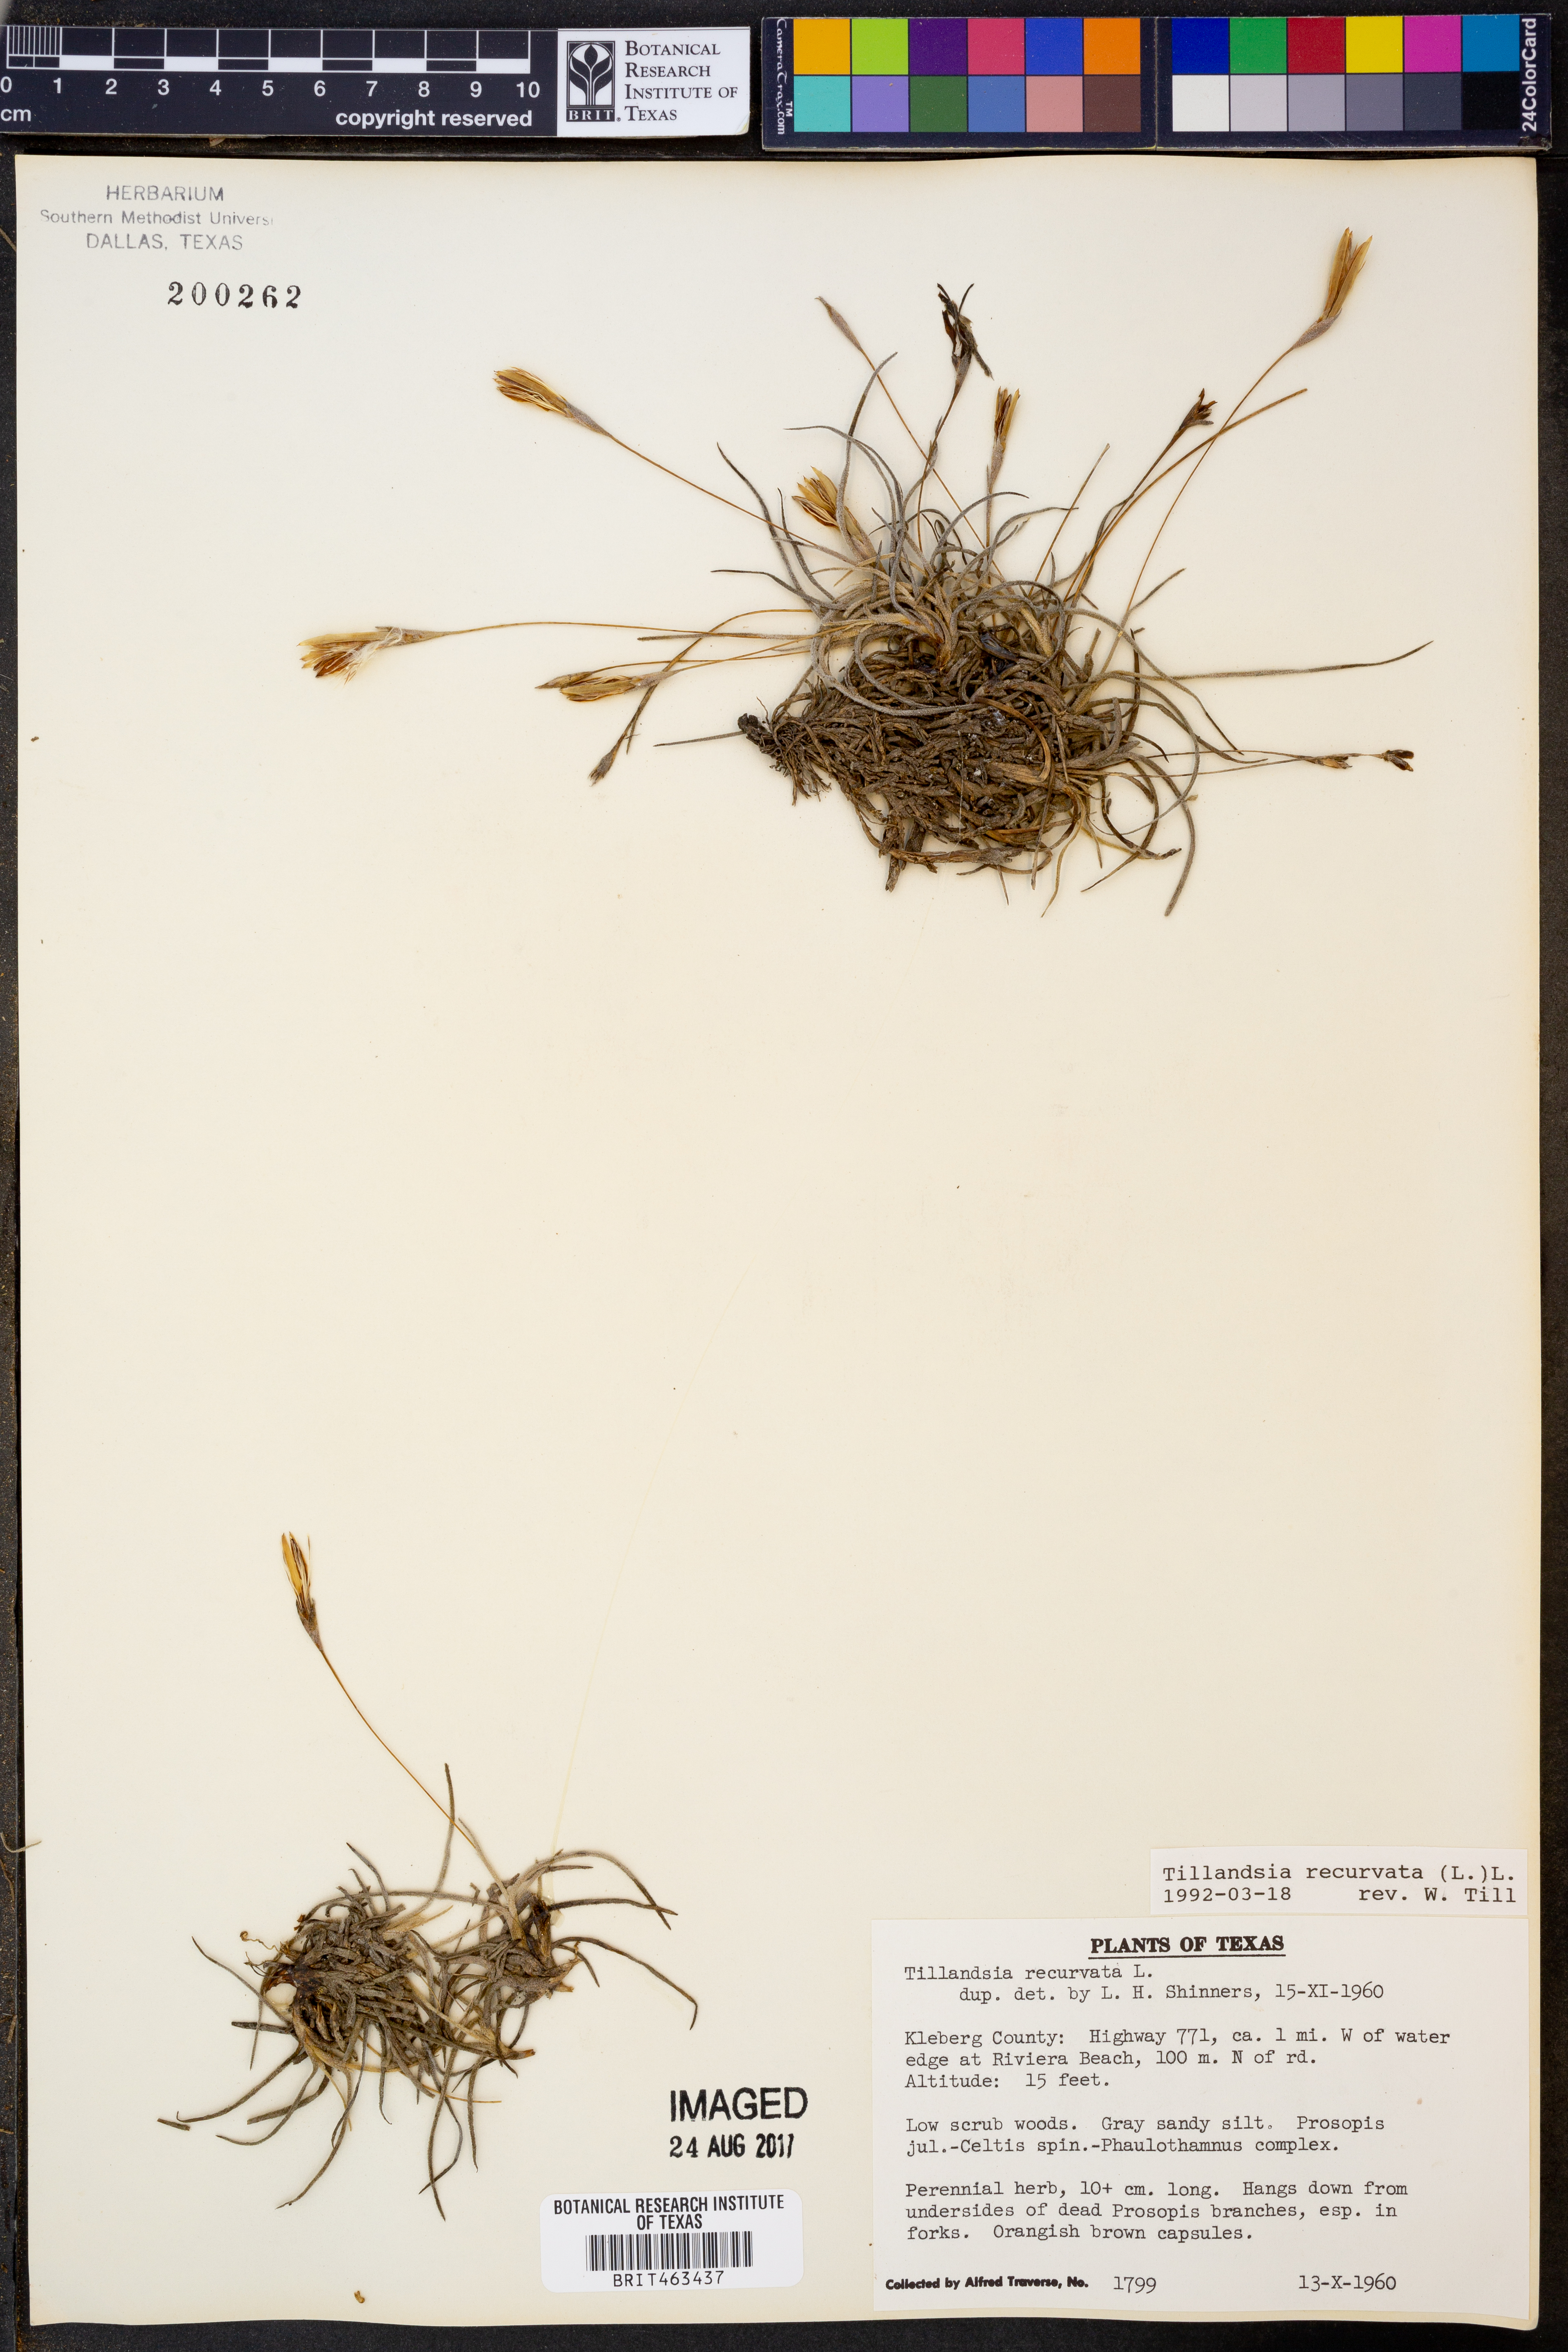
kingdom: Plantae
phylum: Tracheophyta
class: Liliopsida
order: Poales
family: Bromeliaceae
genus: Tillandsia
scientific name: Tillandsia recurvata
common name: Small ballmoss
